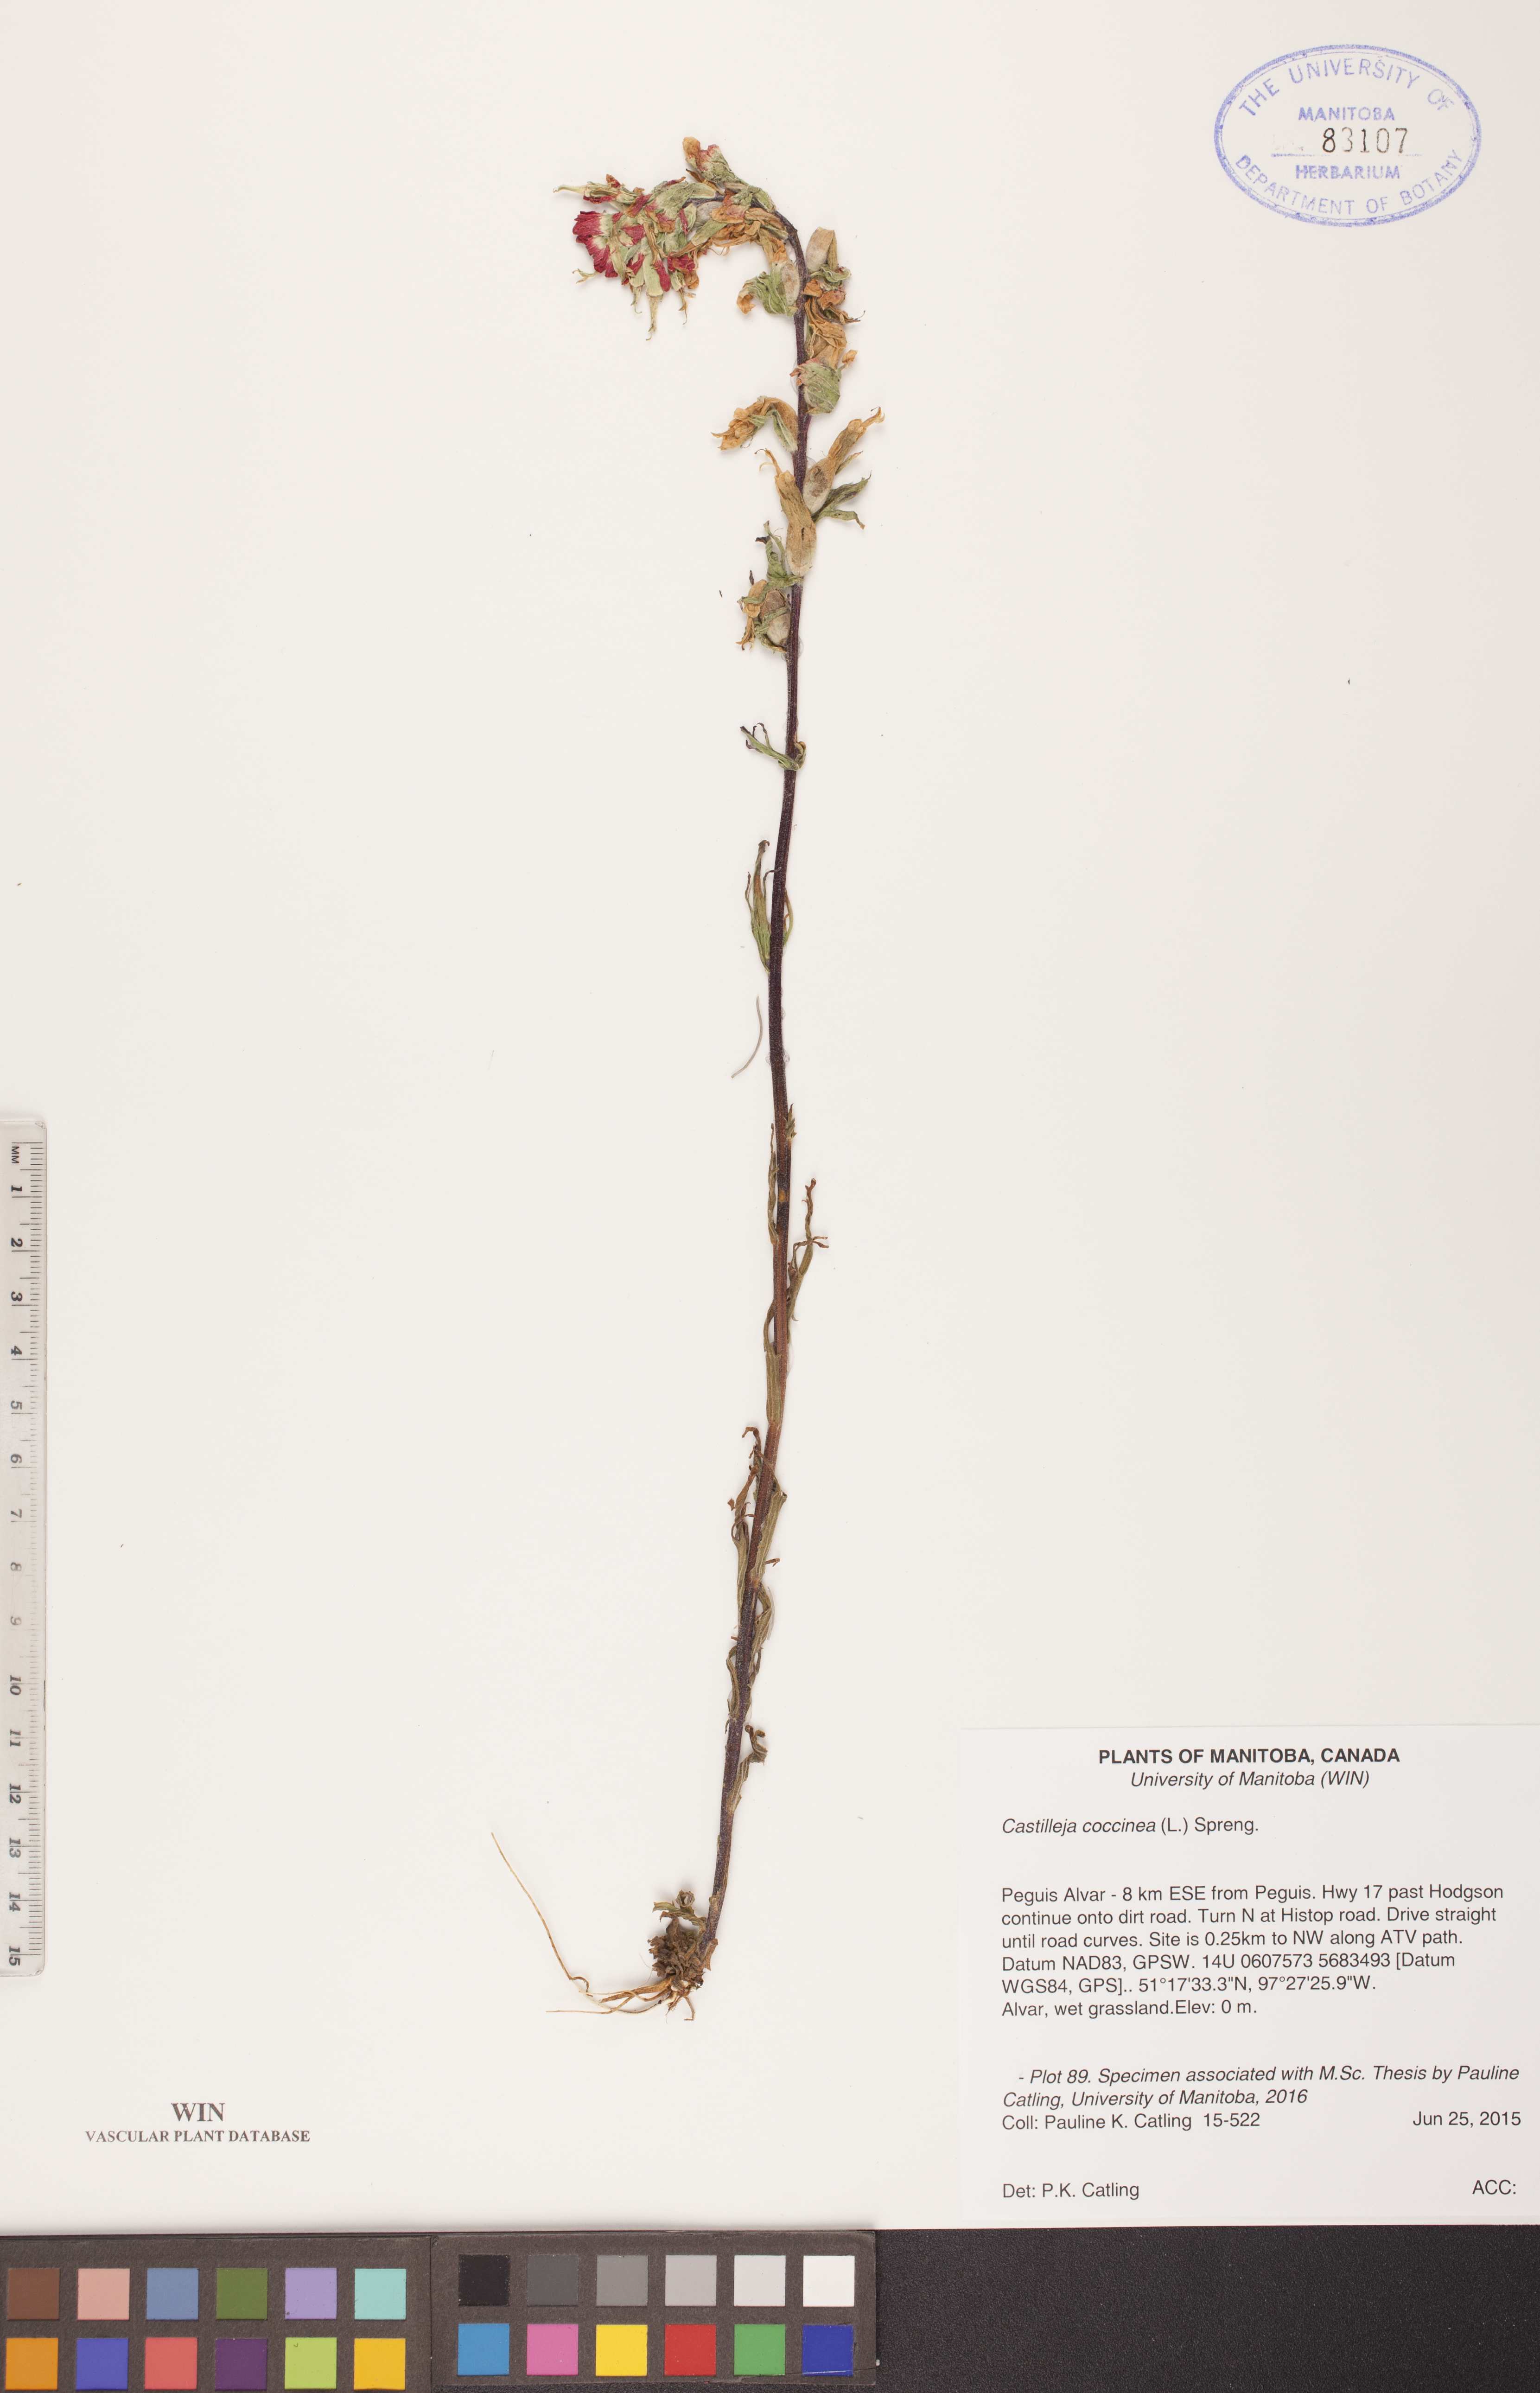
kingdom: Plantae
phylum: Tracheophyta
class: Magnoliopsida
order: Lamiales
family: Orobanchaceae
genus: Castilleja
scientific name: Castilleja coccinea
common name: Scarlet paintbrush
